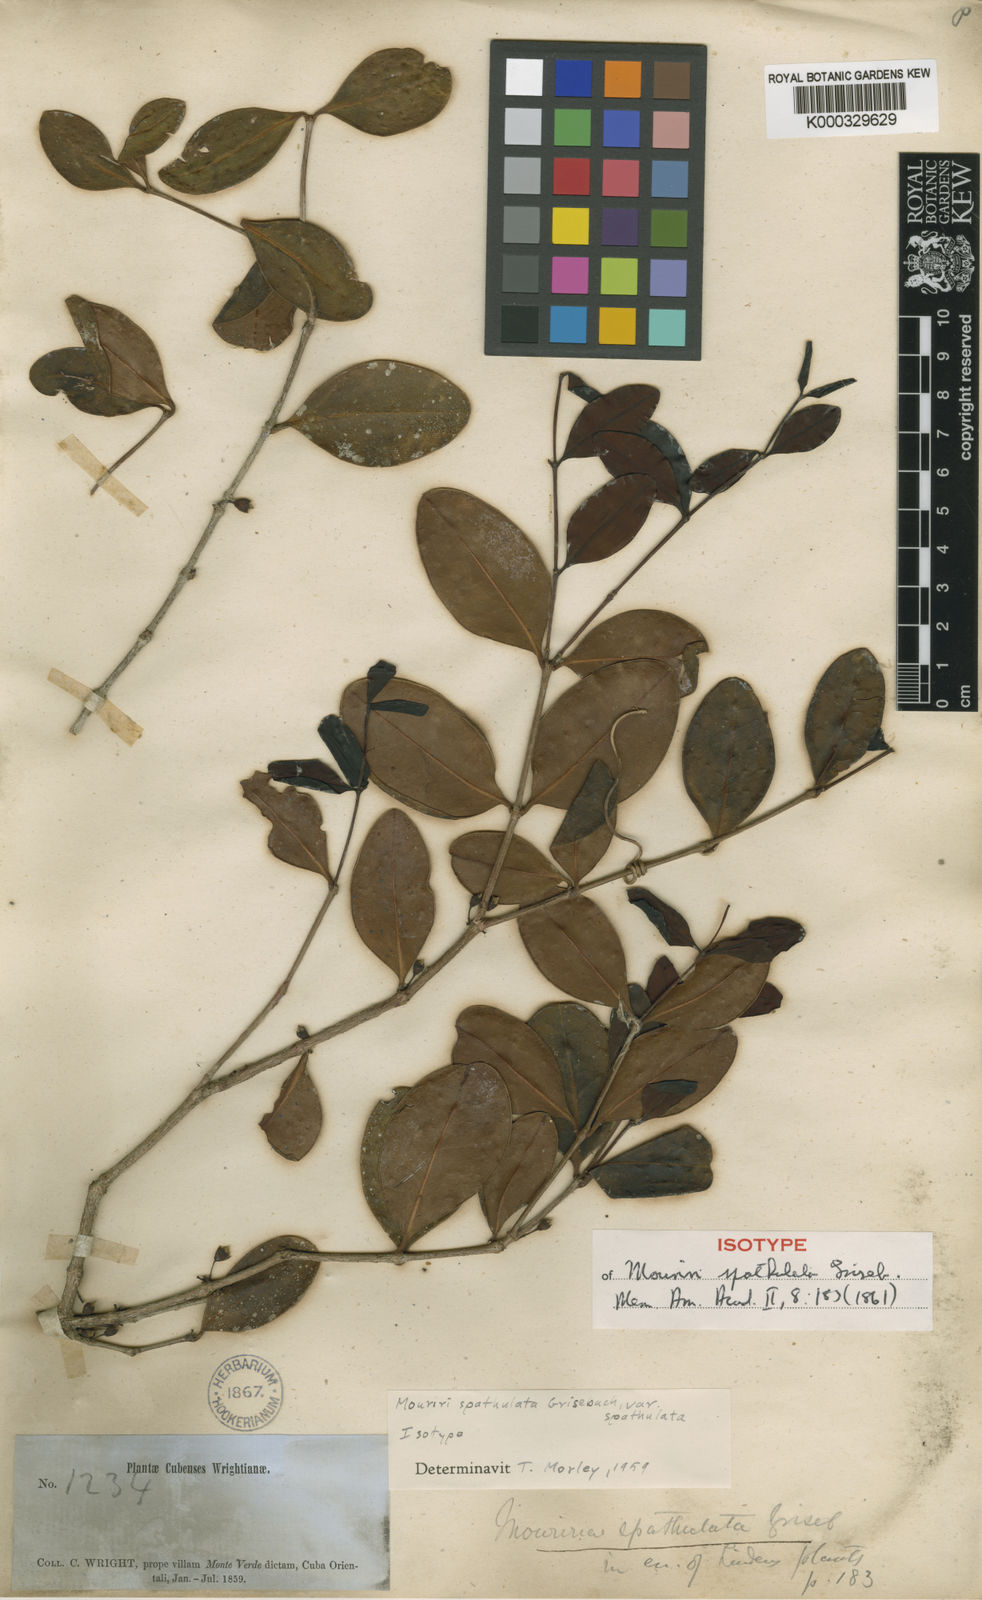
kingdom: Plantae
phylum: Tracheophyta
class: Magnoliopsida
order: Myrtales
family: Melastomataceae
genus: Mouriri
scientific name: Mouriri spathulata
